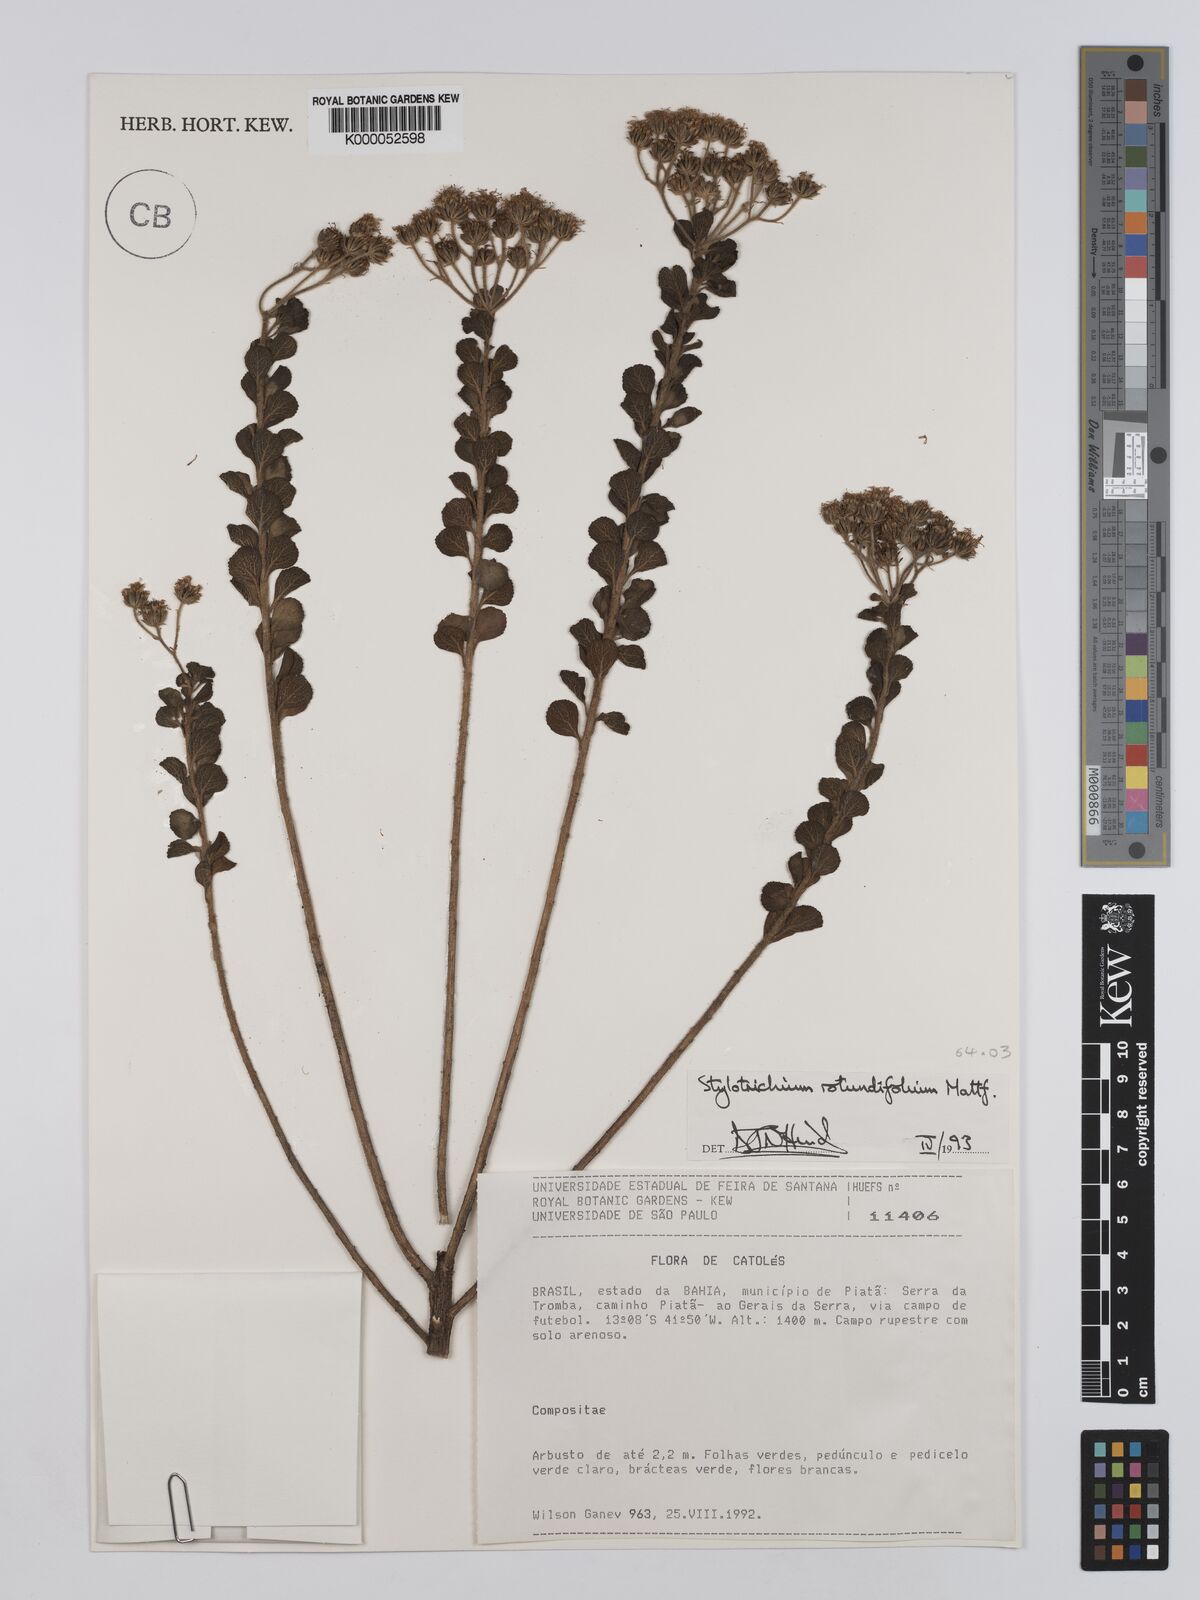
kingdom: Plantae
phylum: Tracheophyta
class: Magnoliopsida
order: Asterales
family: Asteraceae
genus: Stylotrichium
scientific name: Stylotrichium rotundifolium
